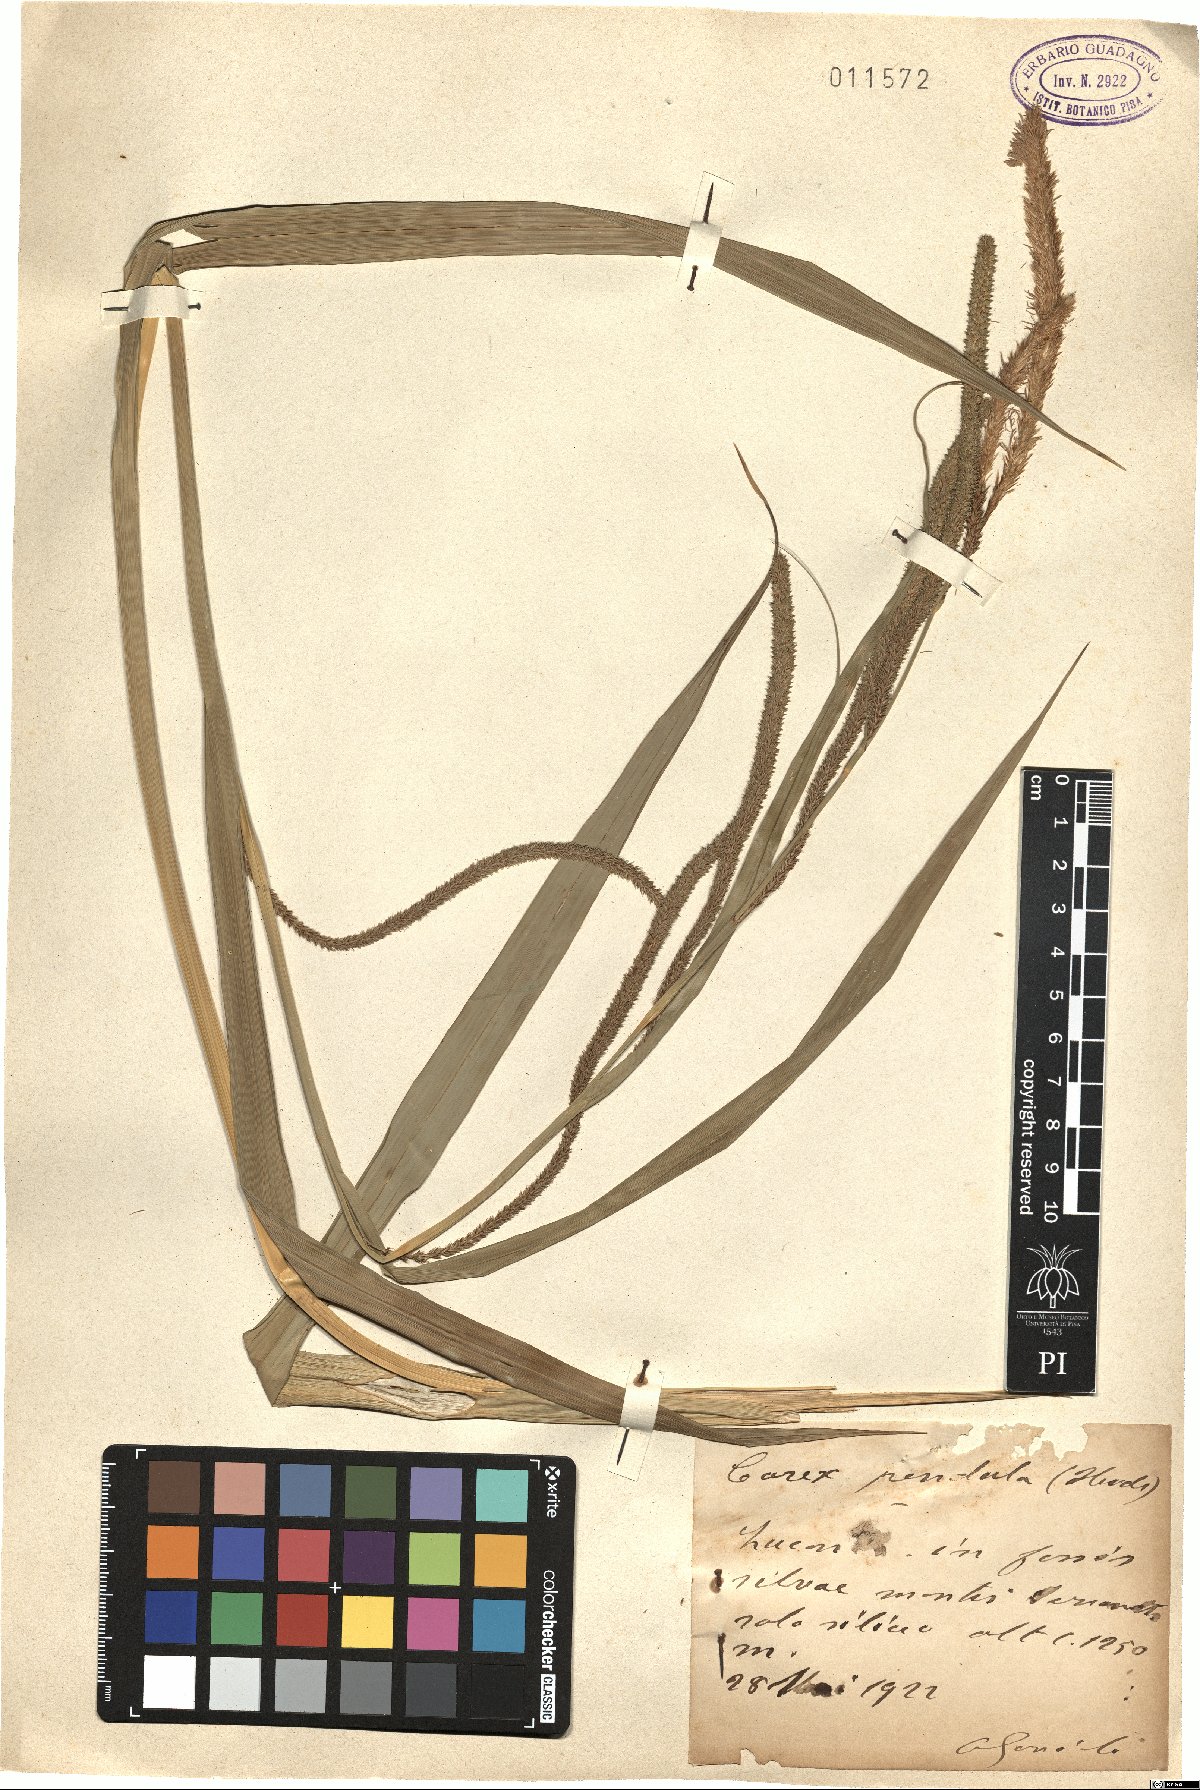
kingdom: Plantae
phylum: Tracheophyta
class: Liliopsida
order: Poales
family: Cyperaceae
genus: Carex
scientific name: Carex pendula
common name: Pendulous sedge
